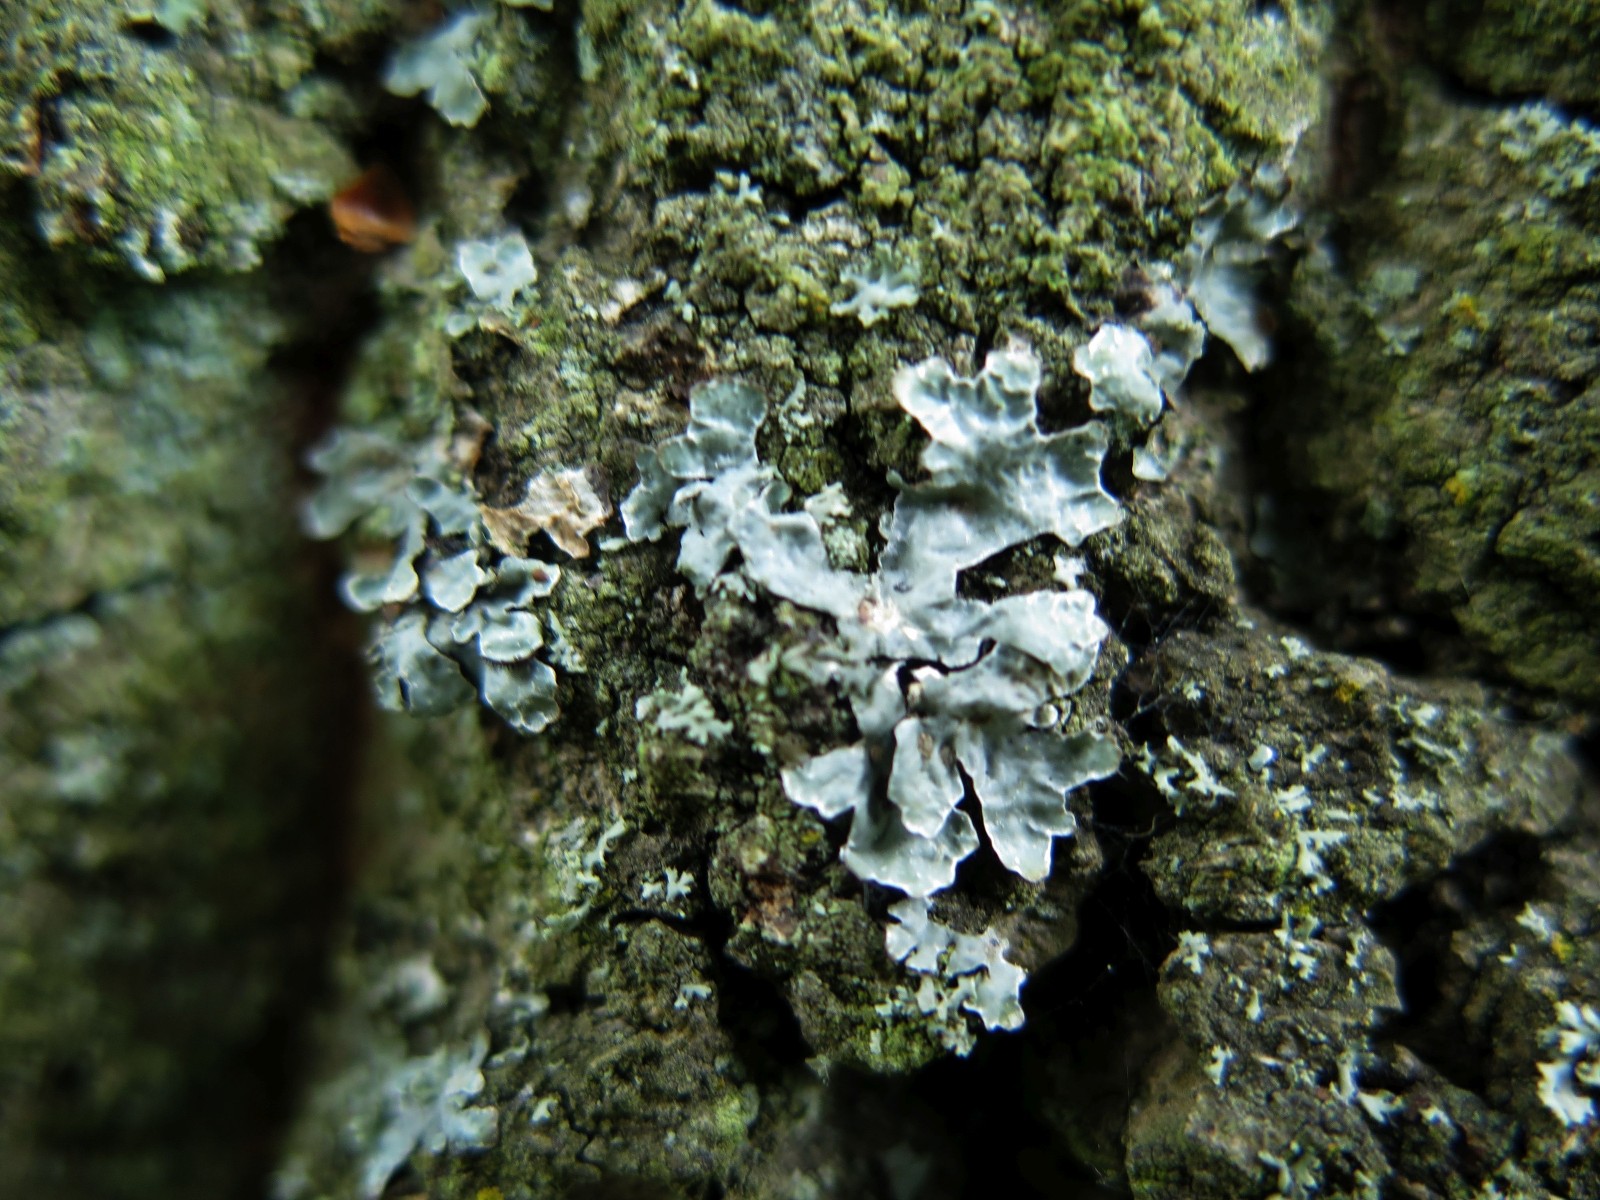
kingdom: Fungi
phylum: Ascomycota
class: Lecanoromycetes
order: Lecanorales
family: Parmeliaceae
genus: Parmelia
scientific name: Parmelia sulcata
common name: rynket skållav
